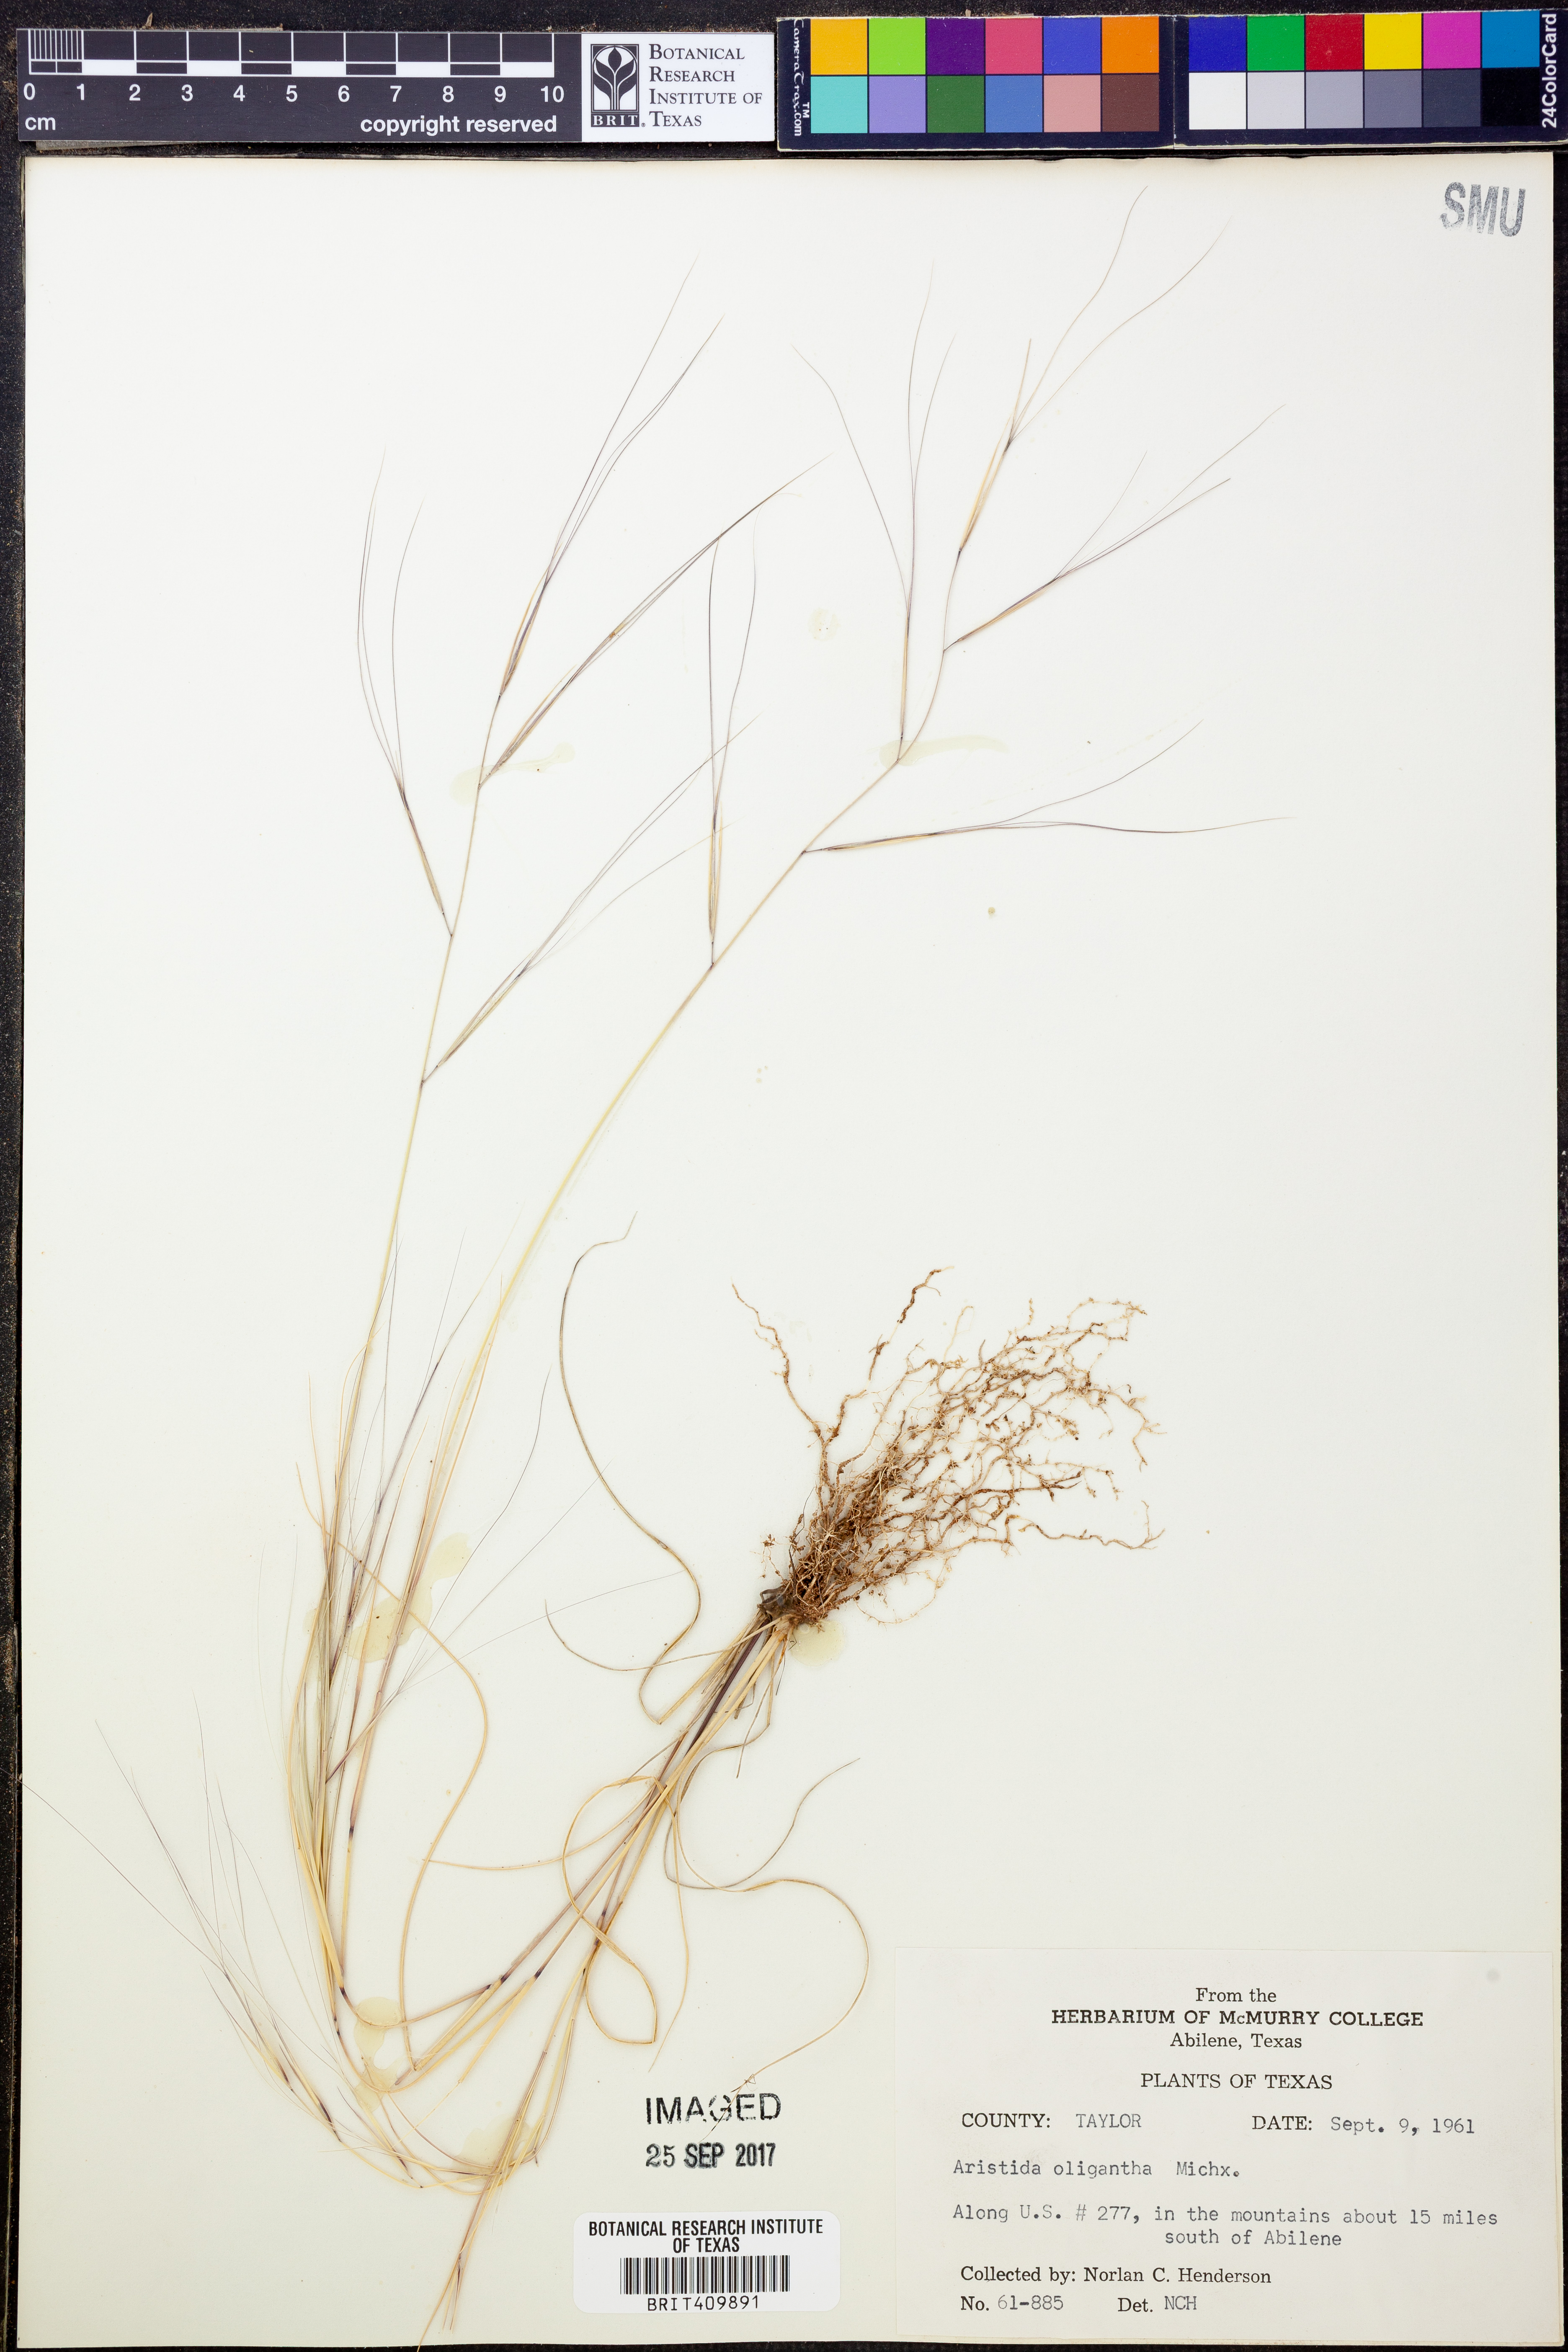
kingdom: Plantae
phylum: Tracheophyta
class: Liliopsida
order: Poales
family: Poaceae
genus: Aristida
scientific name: Aristida oligantha
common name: Few-flowered aristida
